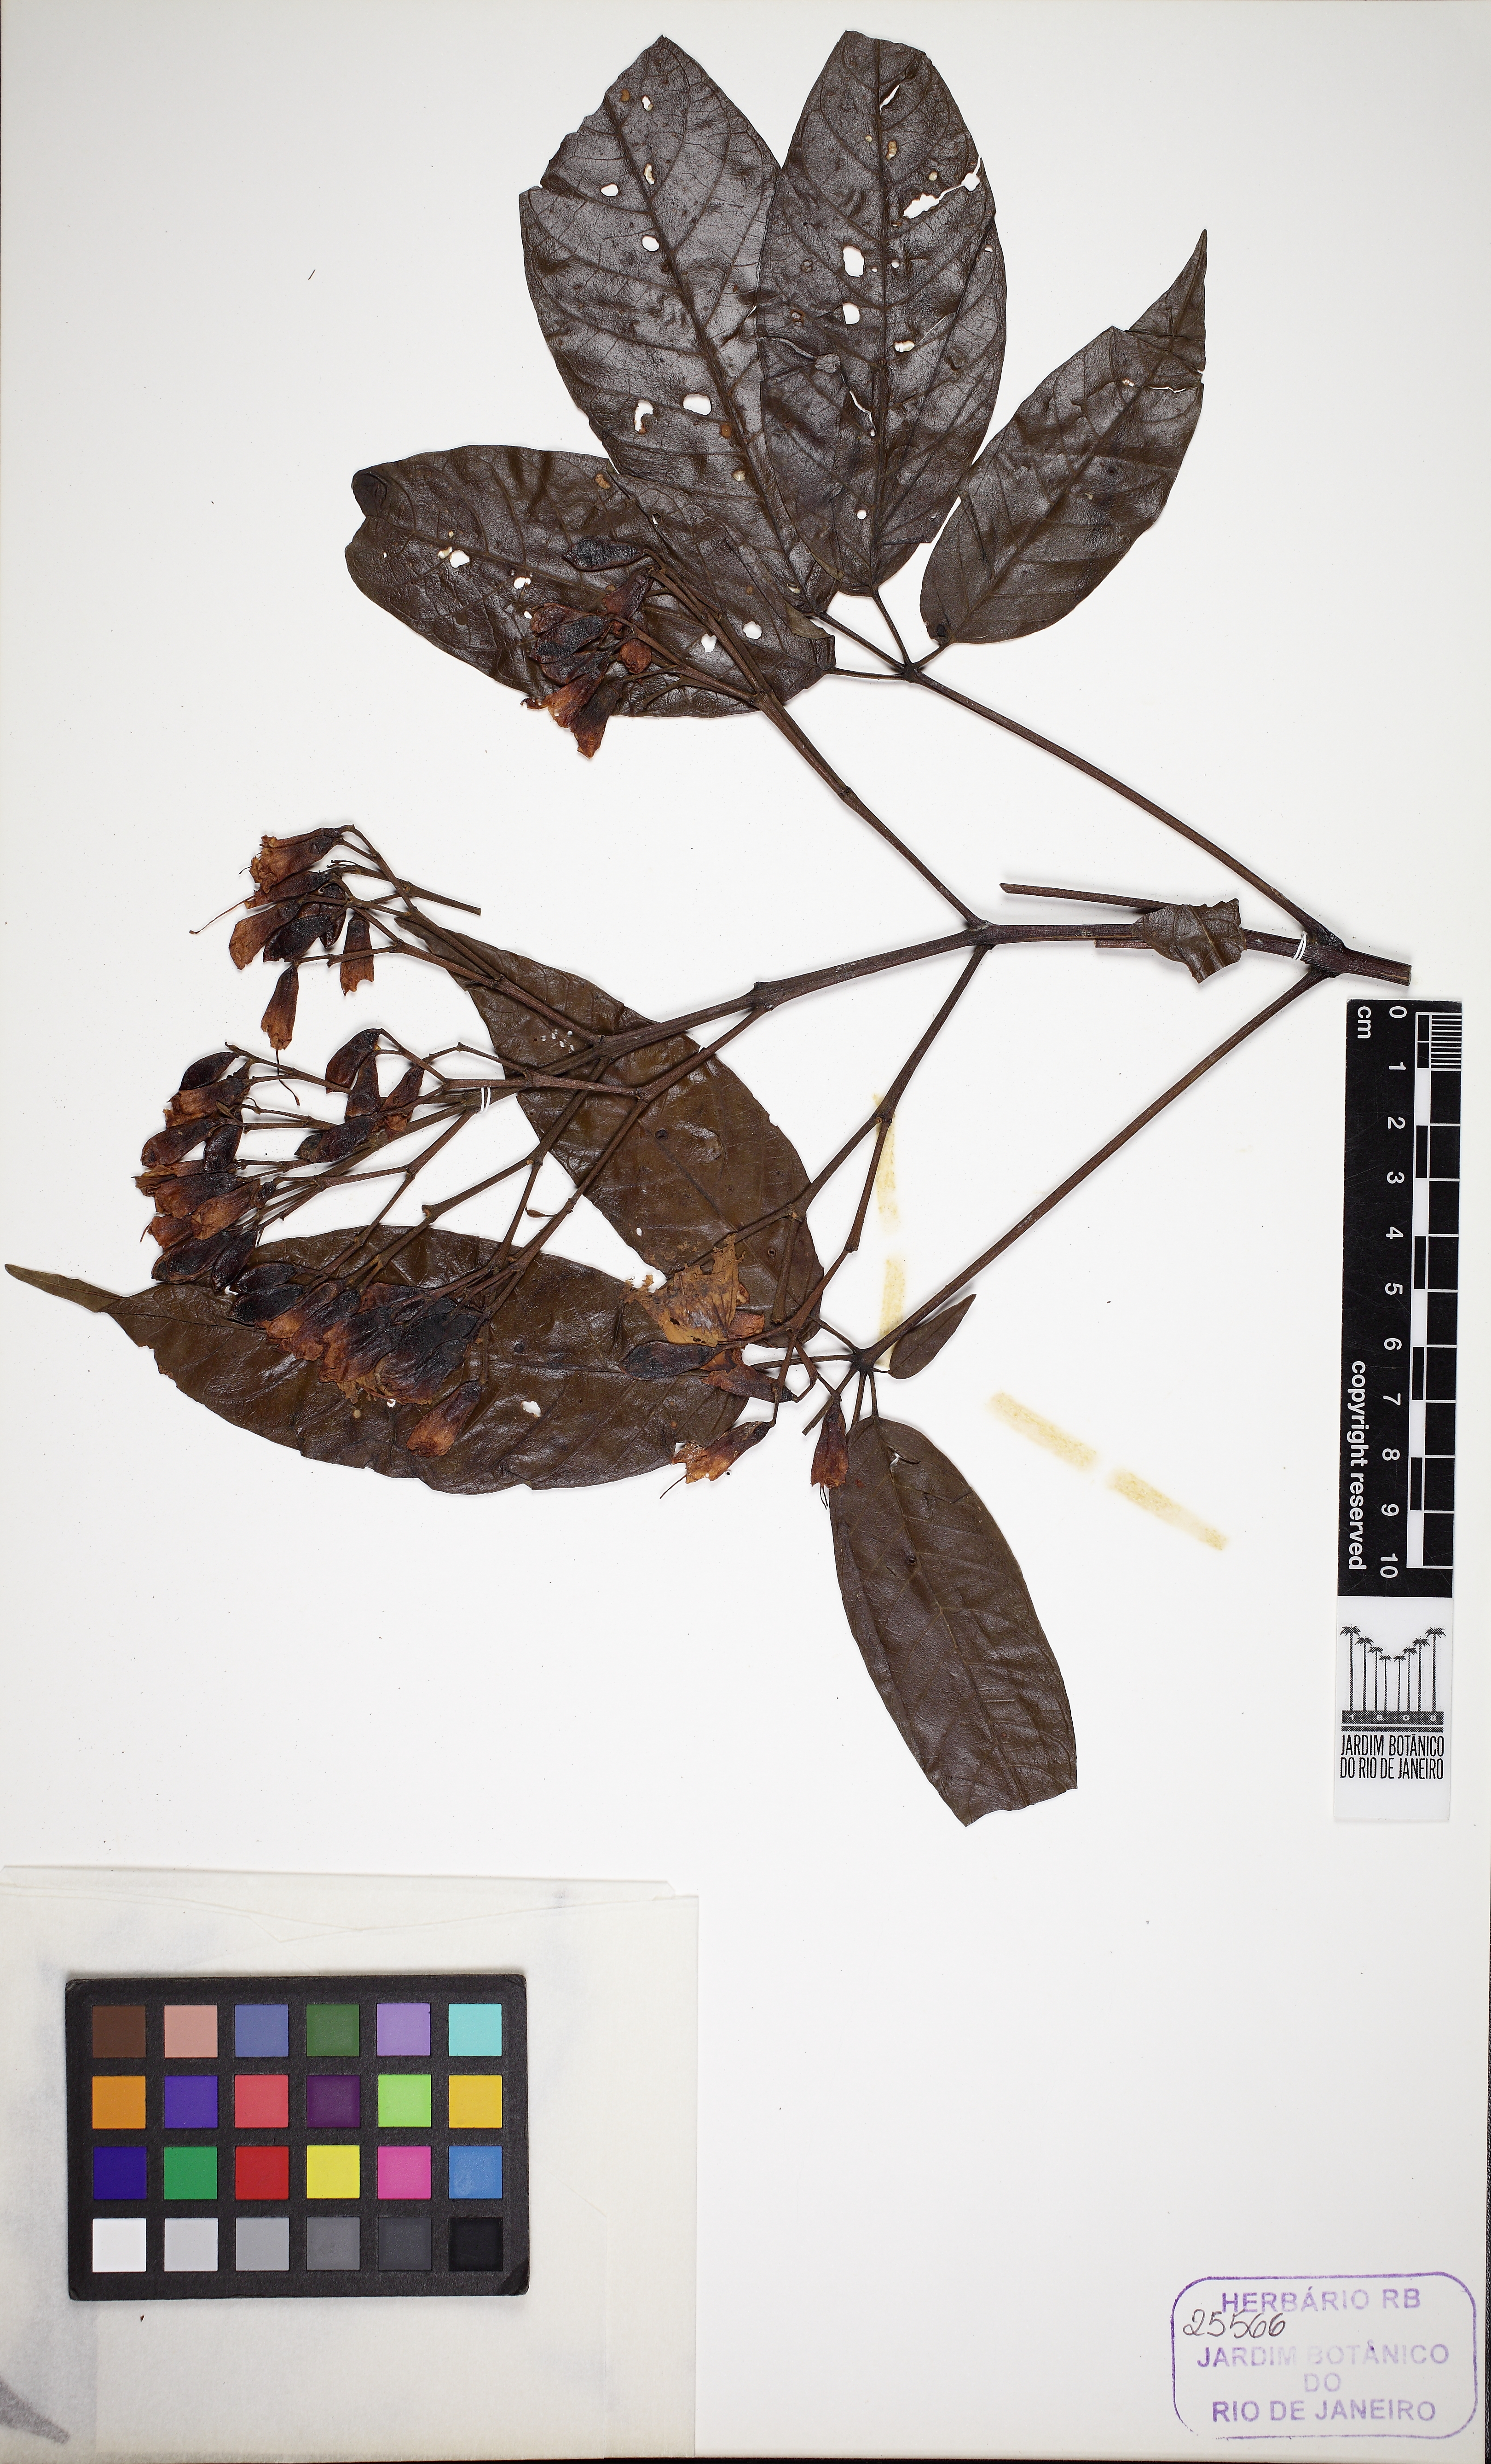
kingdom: Plantae
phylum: Tracheophyta
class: Magnoliopsida
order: Lamiales
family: Bignoniaceae
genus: Sparattosperma
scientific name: Sparattosperma leucanthum
